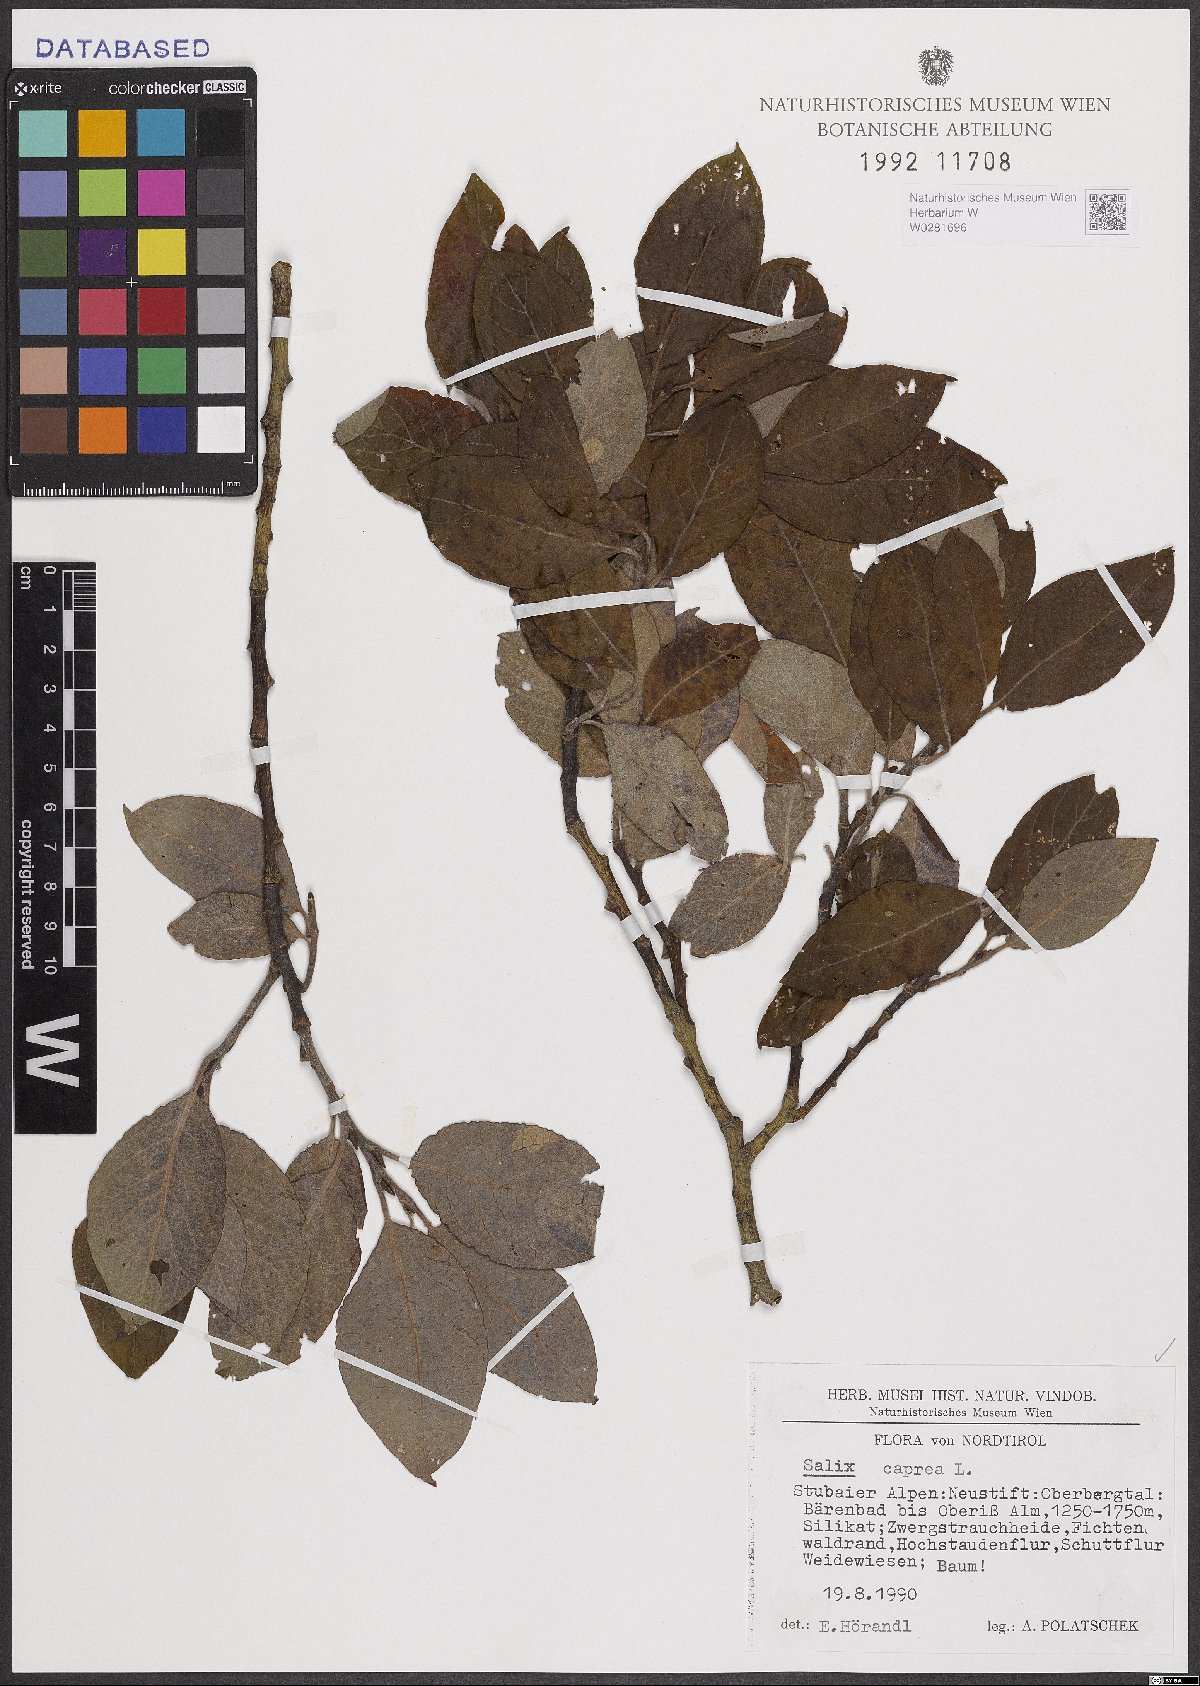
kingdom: Plantae
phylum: Tracheophyta
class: Magnoliopsida
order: Malpighiales
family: Salicaceae
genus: Salix
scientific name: Salix caprea
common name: Goat willow
